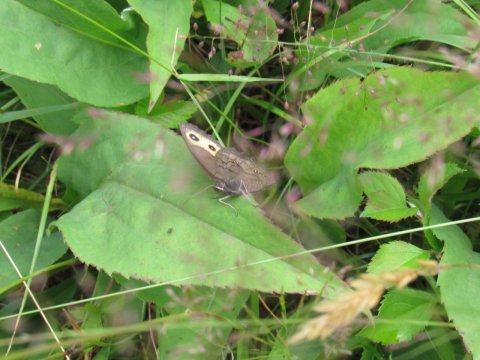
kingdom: Animalia
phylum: Arthropoda
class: Insecta
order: Lepidoptera
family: Nymphalidae
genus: Cercyonis
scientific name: Cercyonis pegala
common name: Common Wood-Nymph
